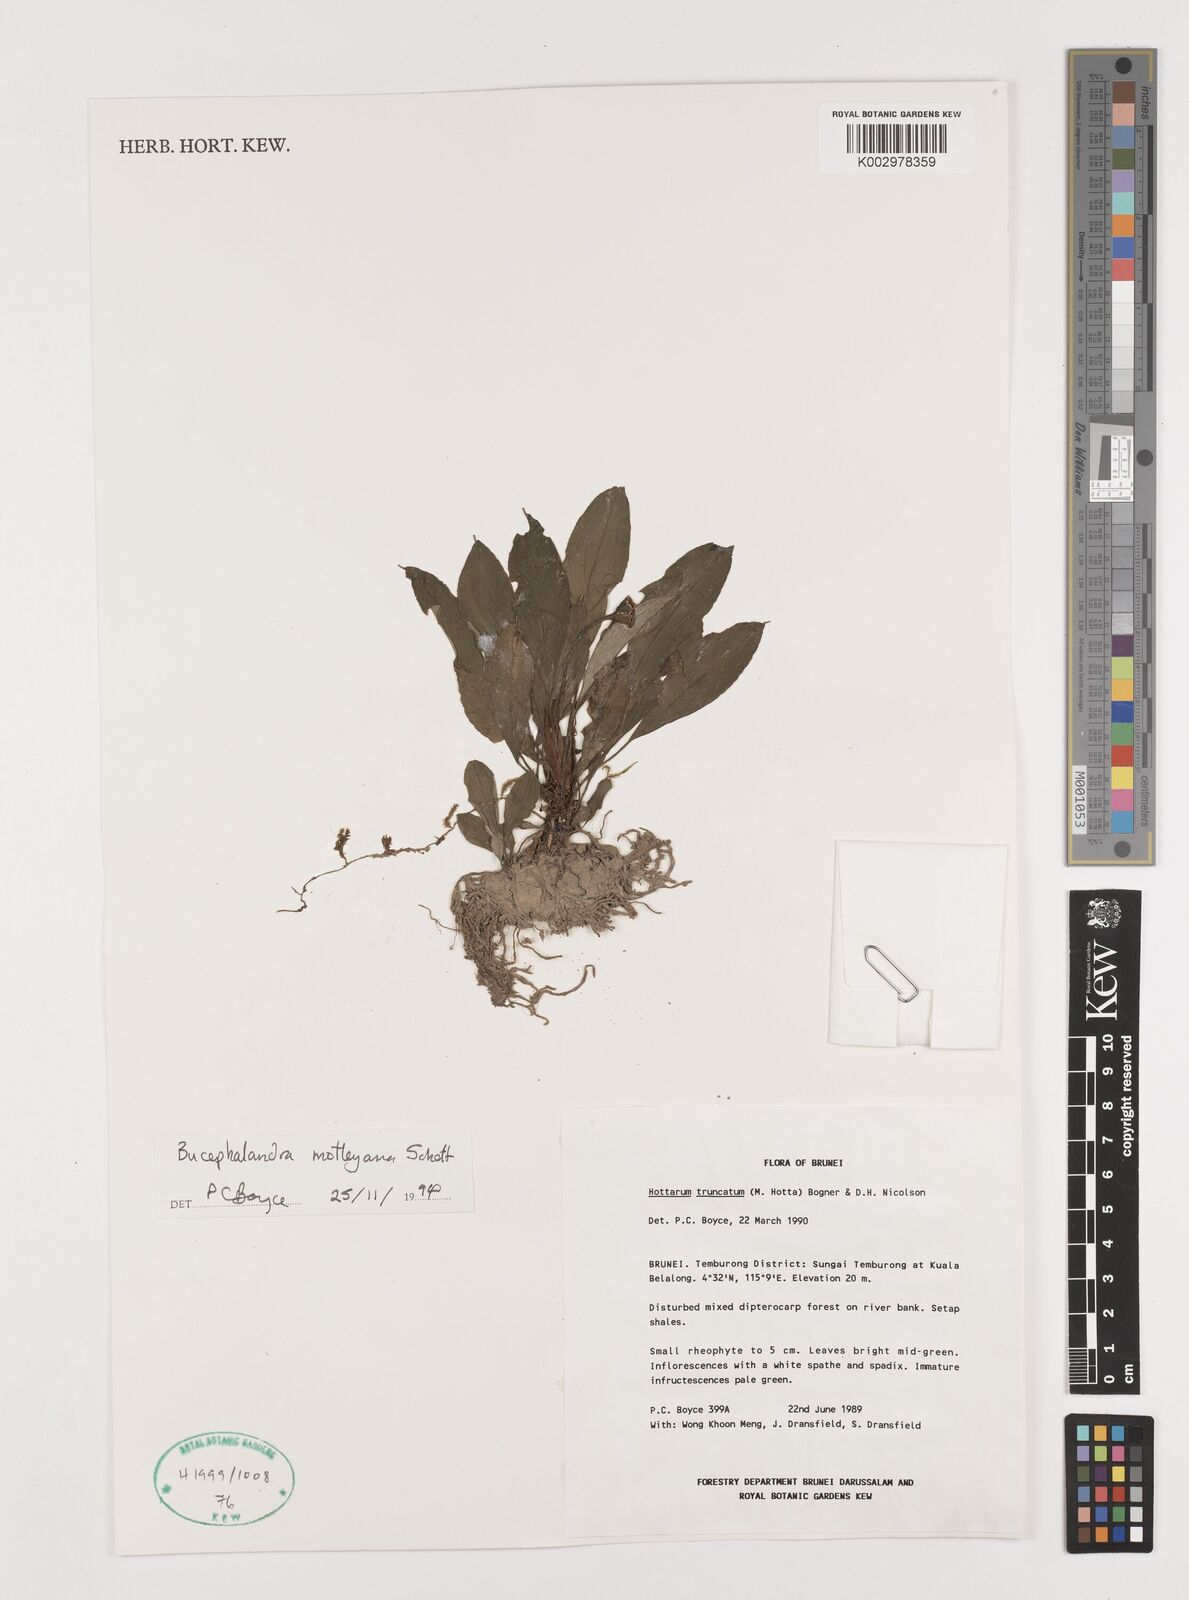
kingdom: Plantae
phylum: Tracheophyta
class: Liliopsida
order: Alismatales
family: Araceae
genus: Bucephalandra
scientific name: Bucephalandra motleyana
